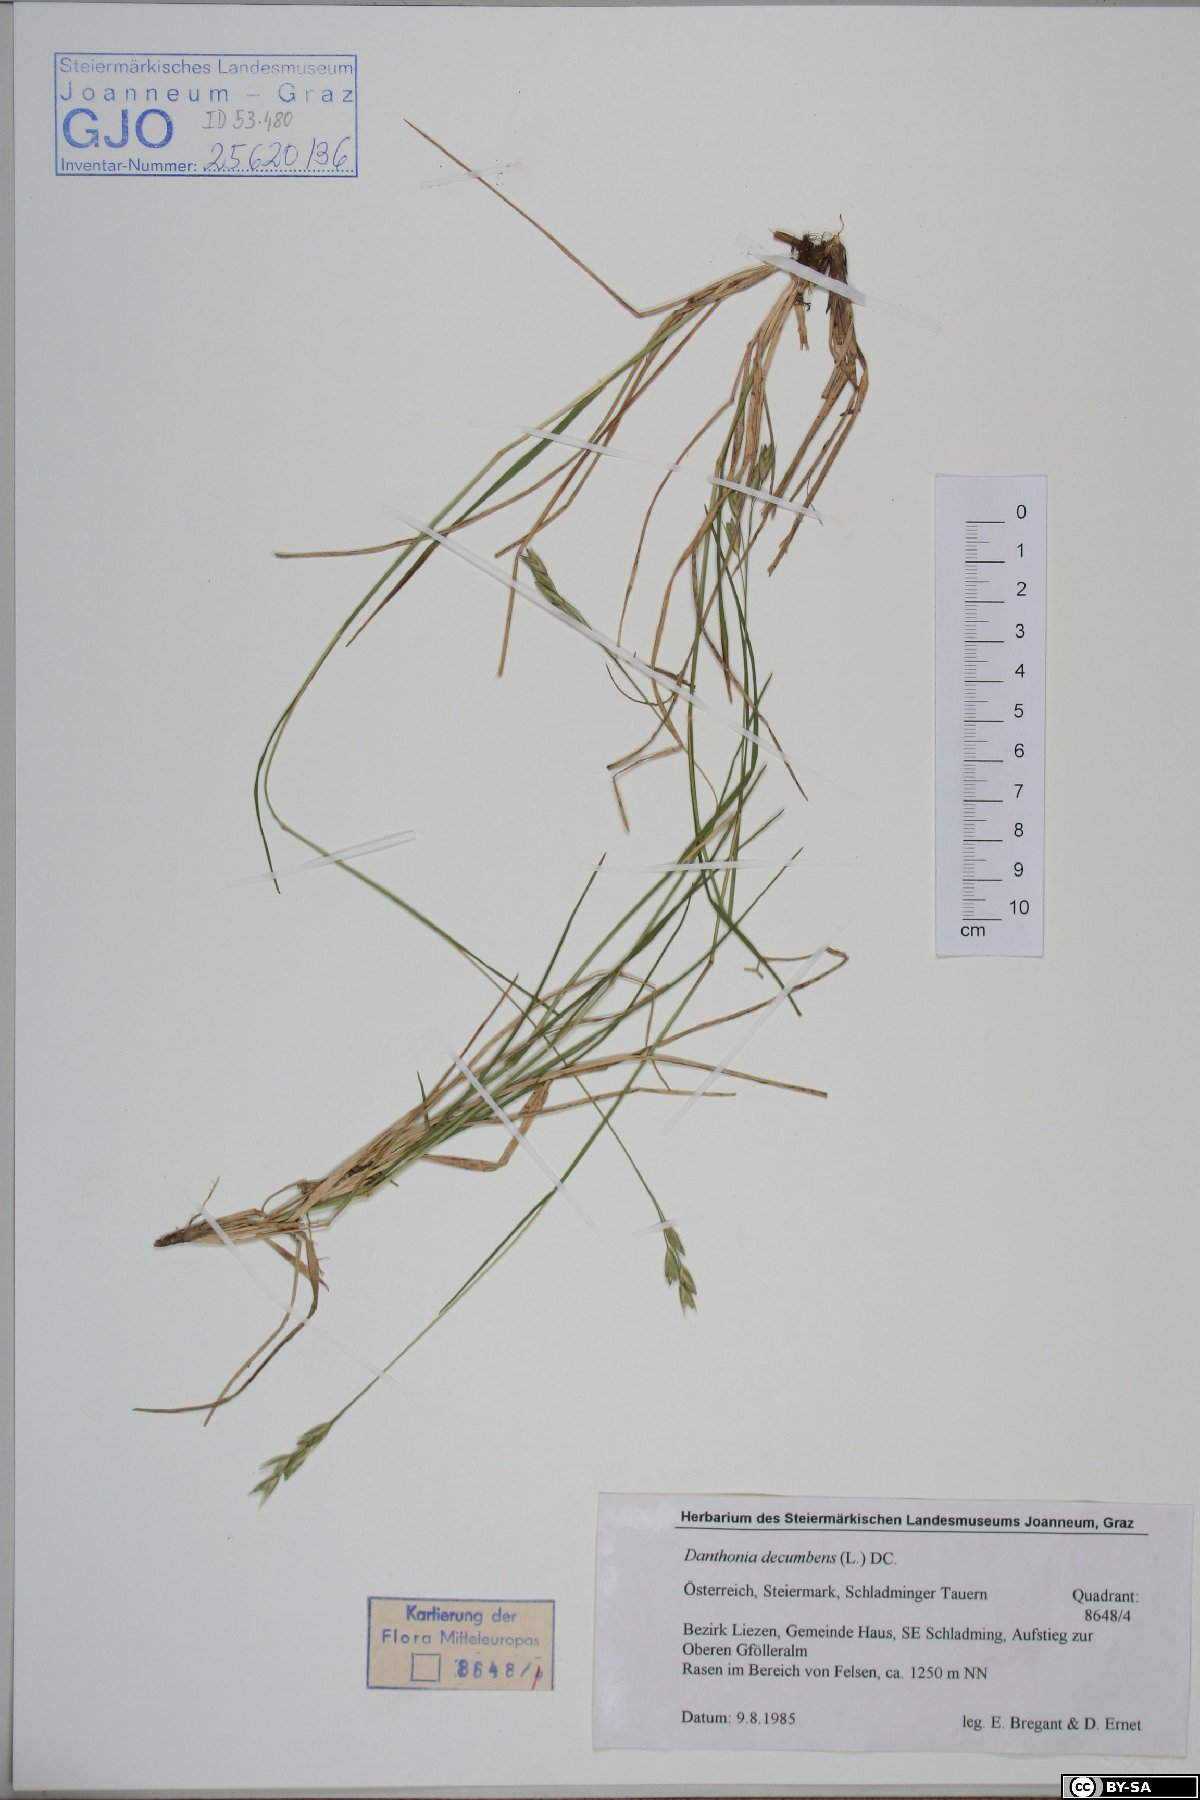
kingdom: Plantae
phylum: Tracheophyta
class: Liliopsida
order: Poales
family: Poaceae
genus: Danthonia
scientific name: Danthonia decumbens
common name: Common heathgrass
